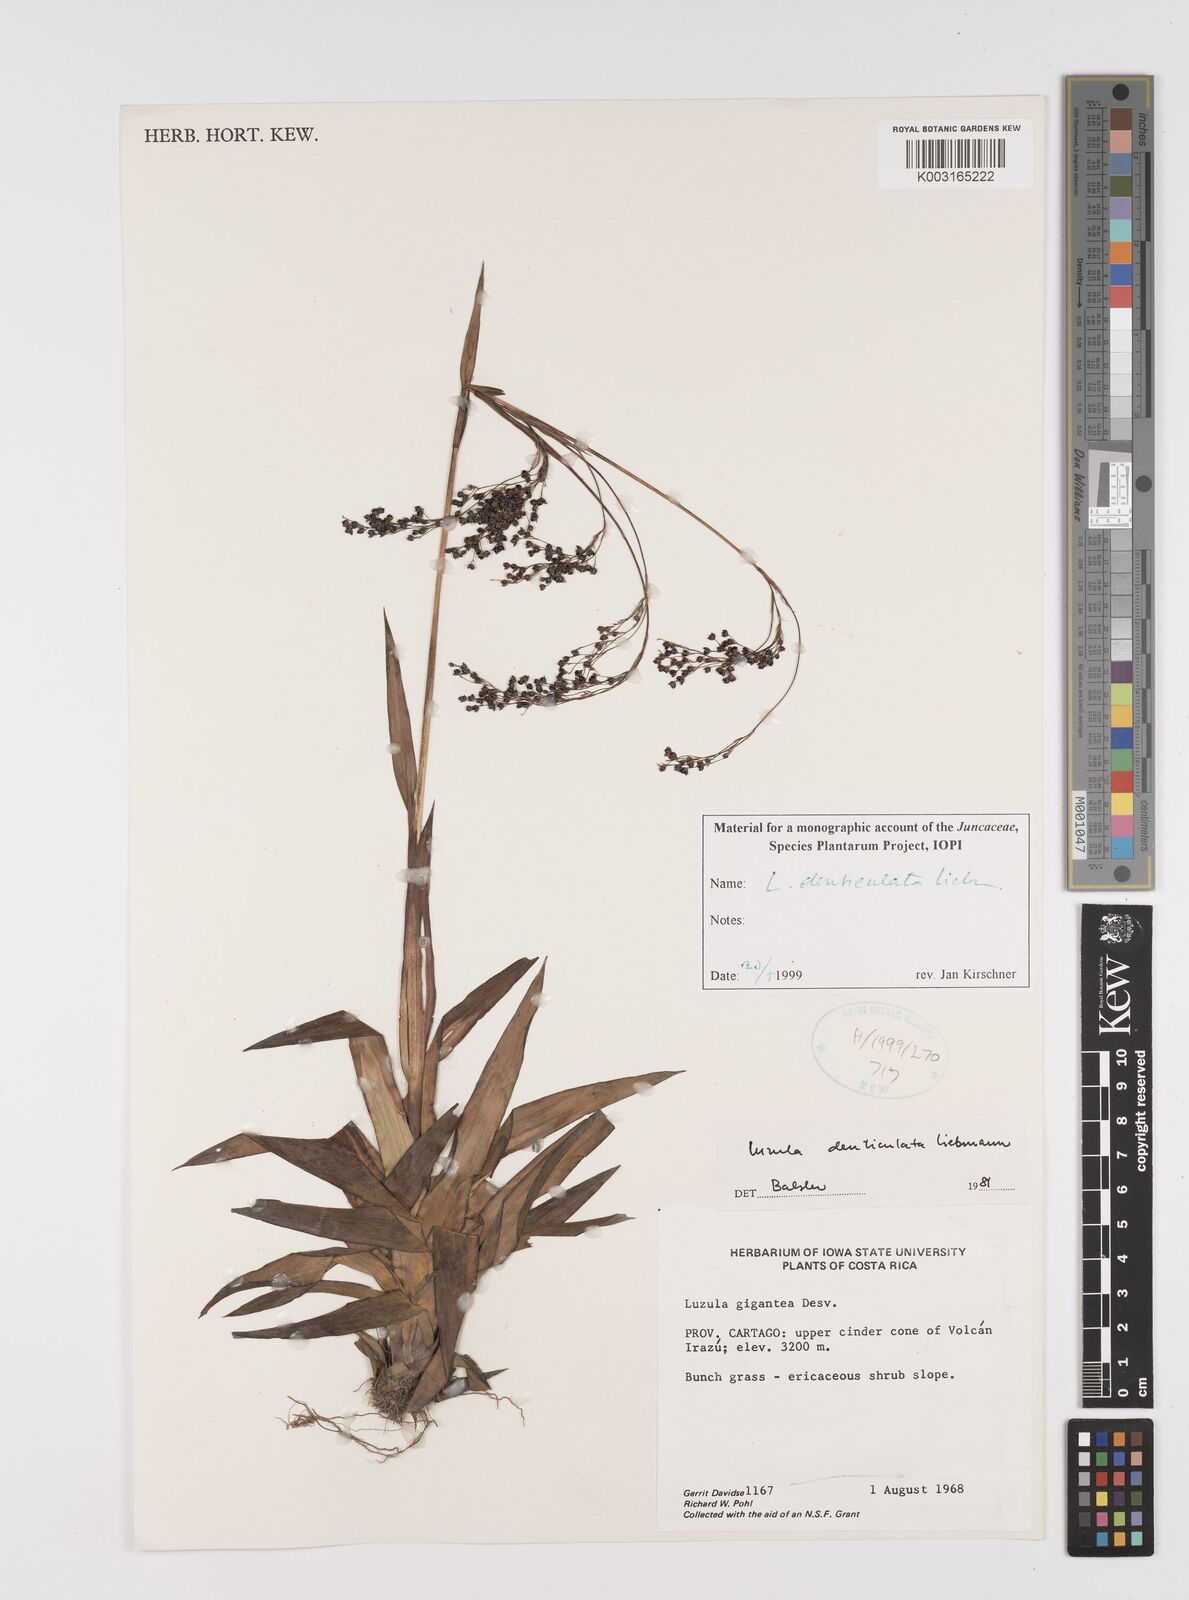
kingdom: Plantae
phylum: Tracheophyta
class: Liliopsida
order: Poales
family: Juncaceae
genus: Luzula
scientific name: Luzula gigantea
